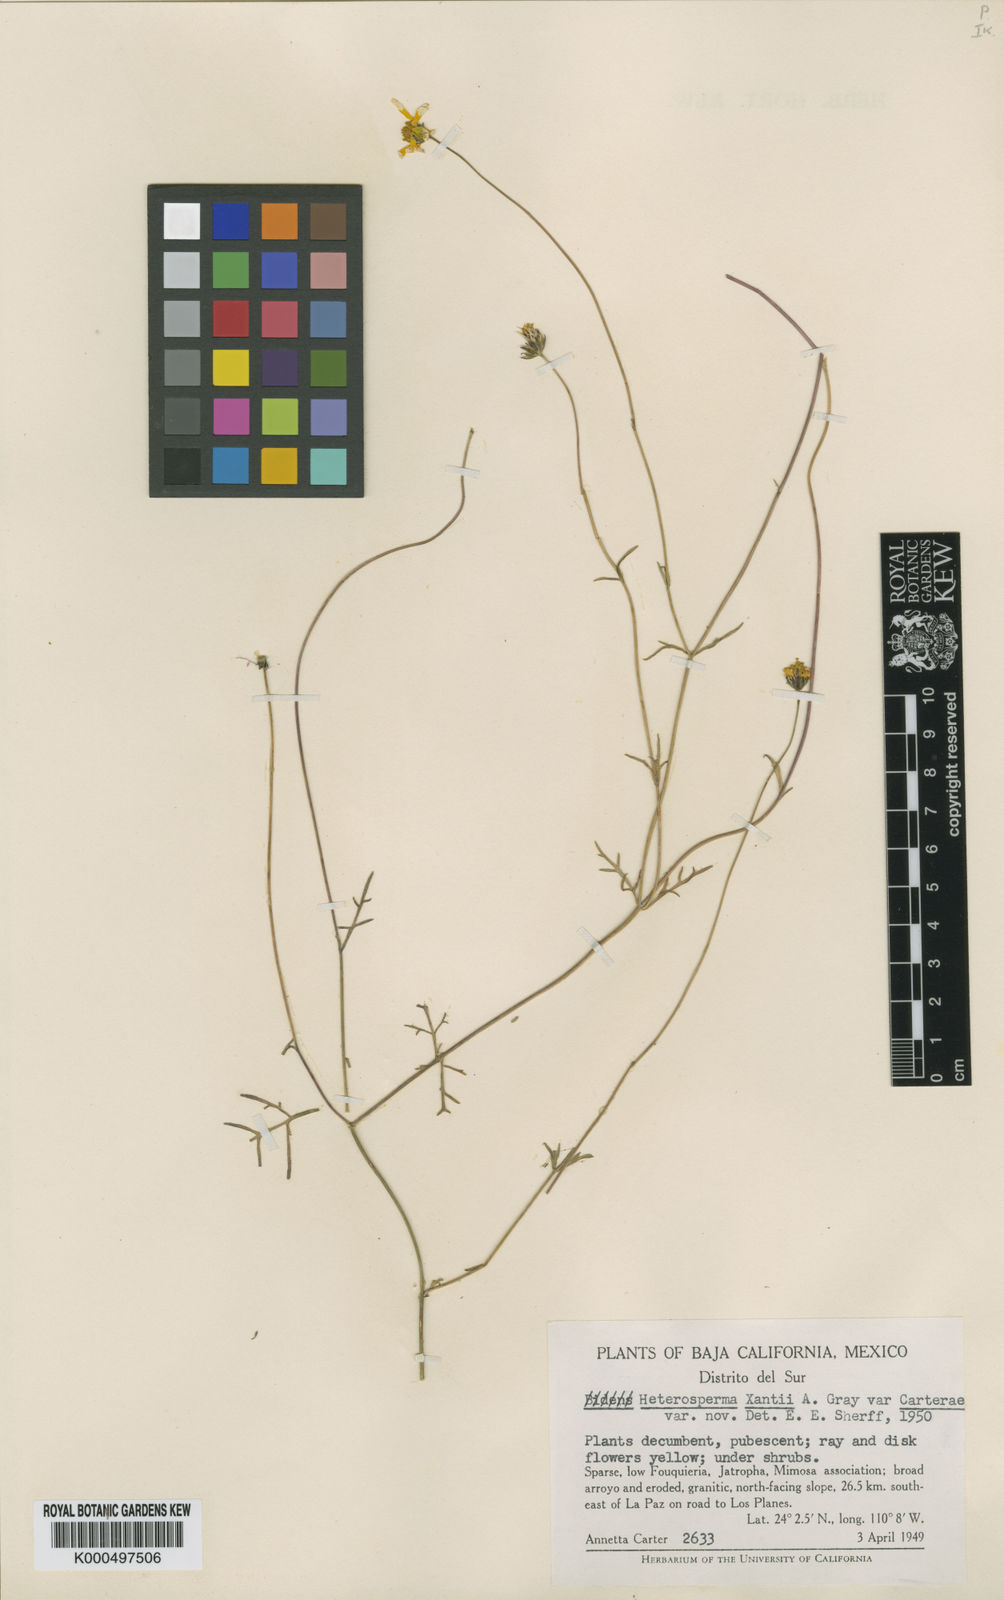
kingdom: Plantae
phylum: Tracheophyta
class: Magnoliopsida
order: Asterales
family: Asteraceae
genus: Bidens
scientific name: Bidens xanti
